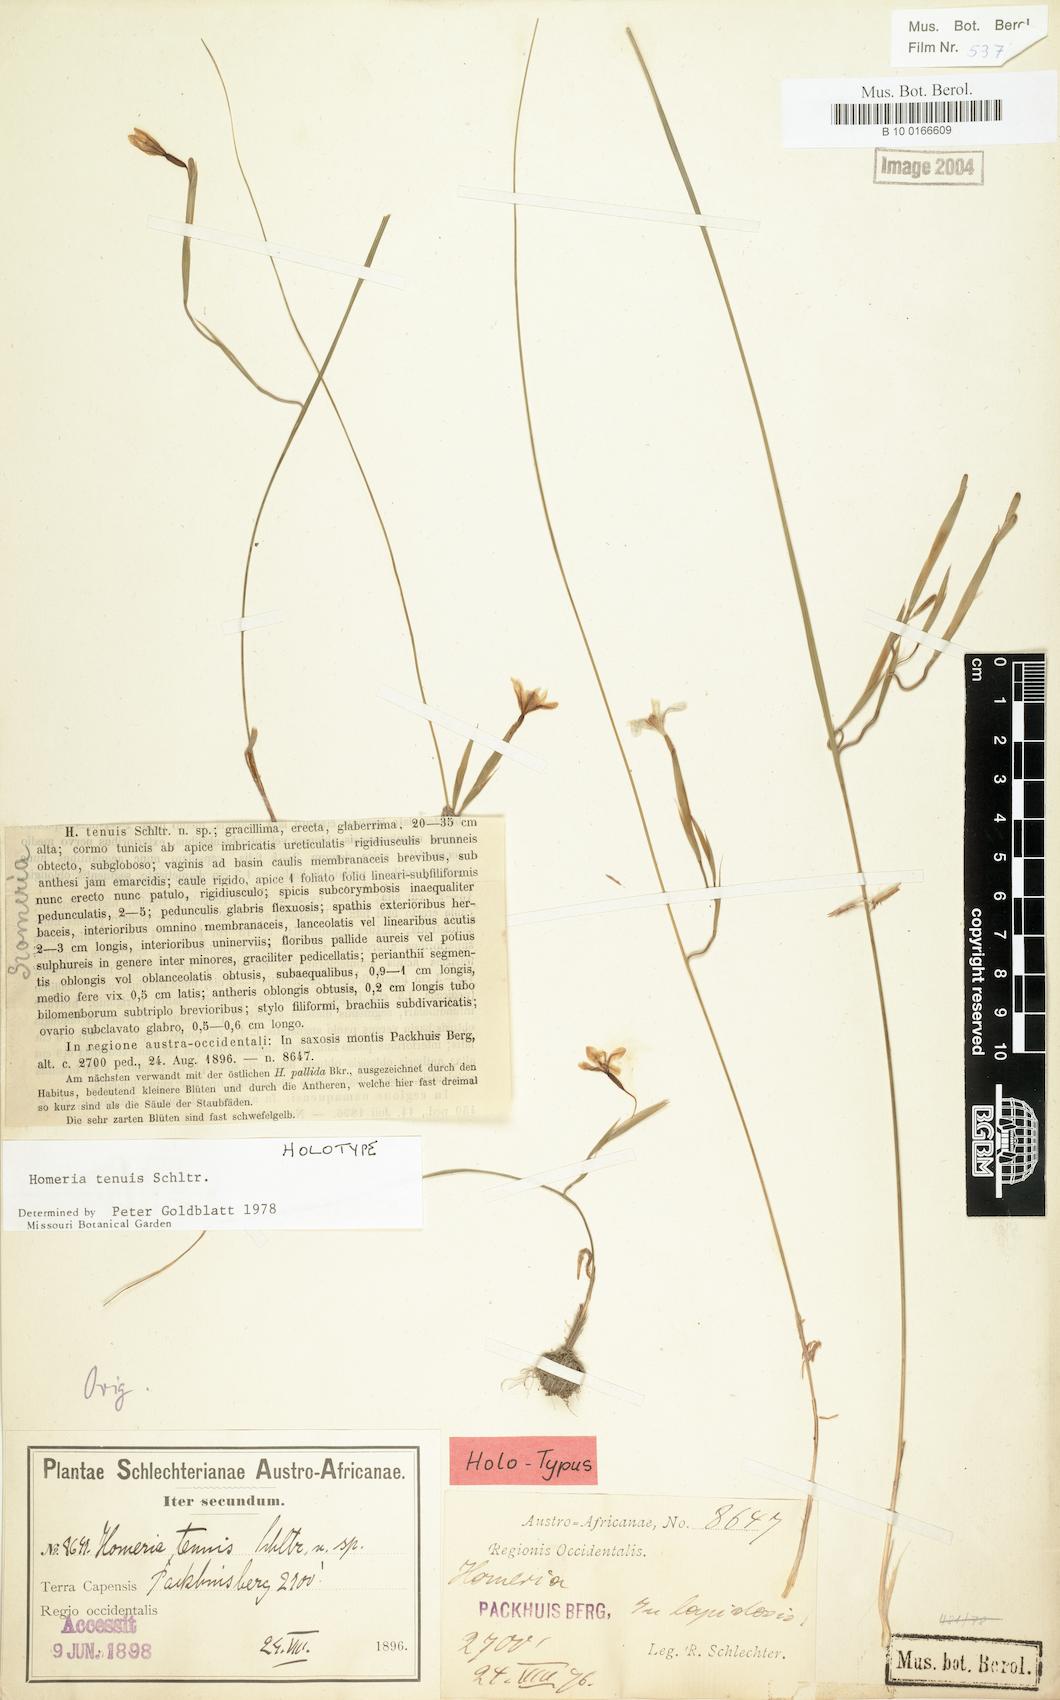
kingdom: Plantae
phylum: Tracheophyta
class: Liliopsida
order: Asparagales
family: Iridaceae
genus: Moraea
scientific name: Moraea demissa
